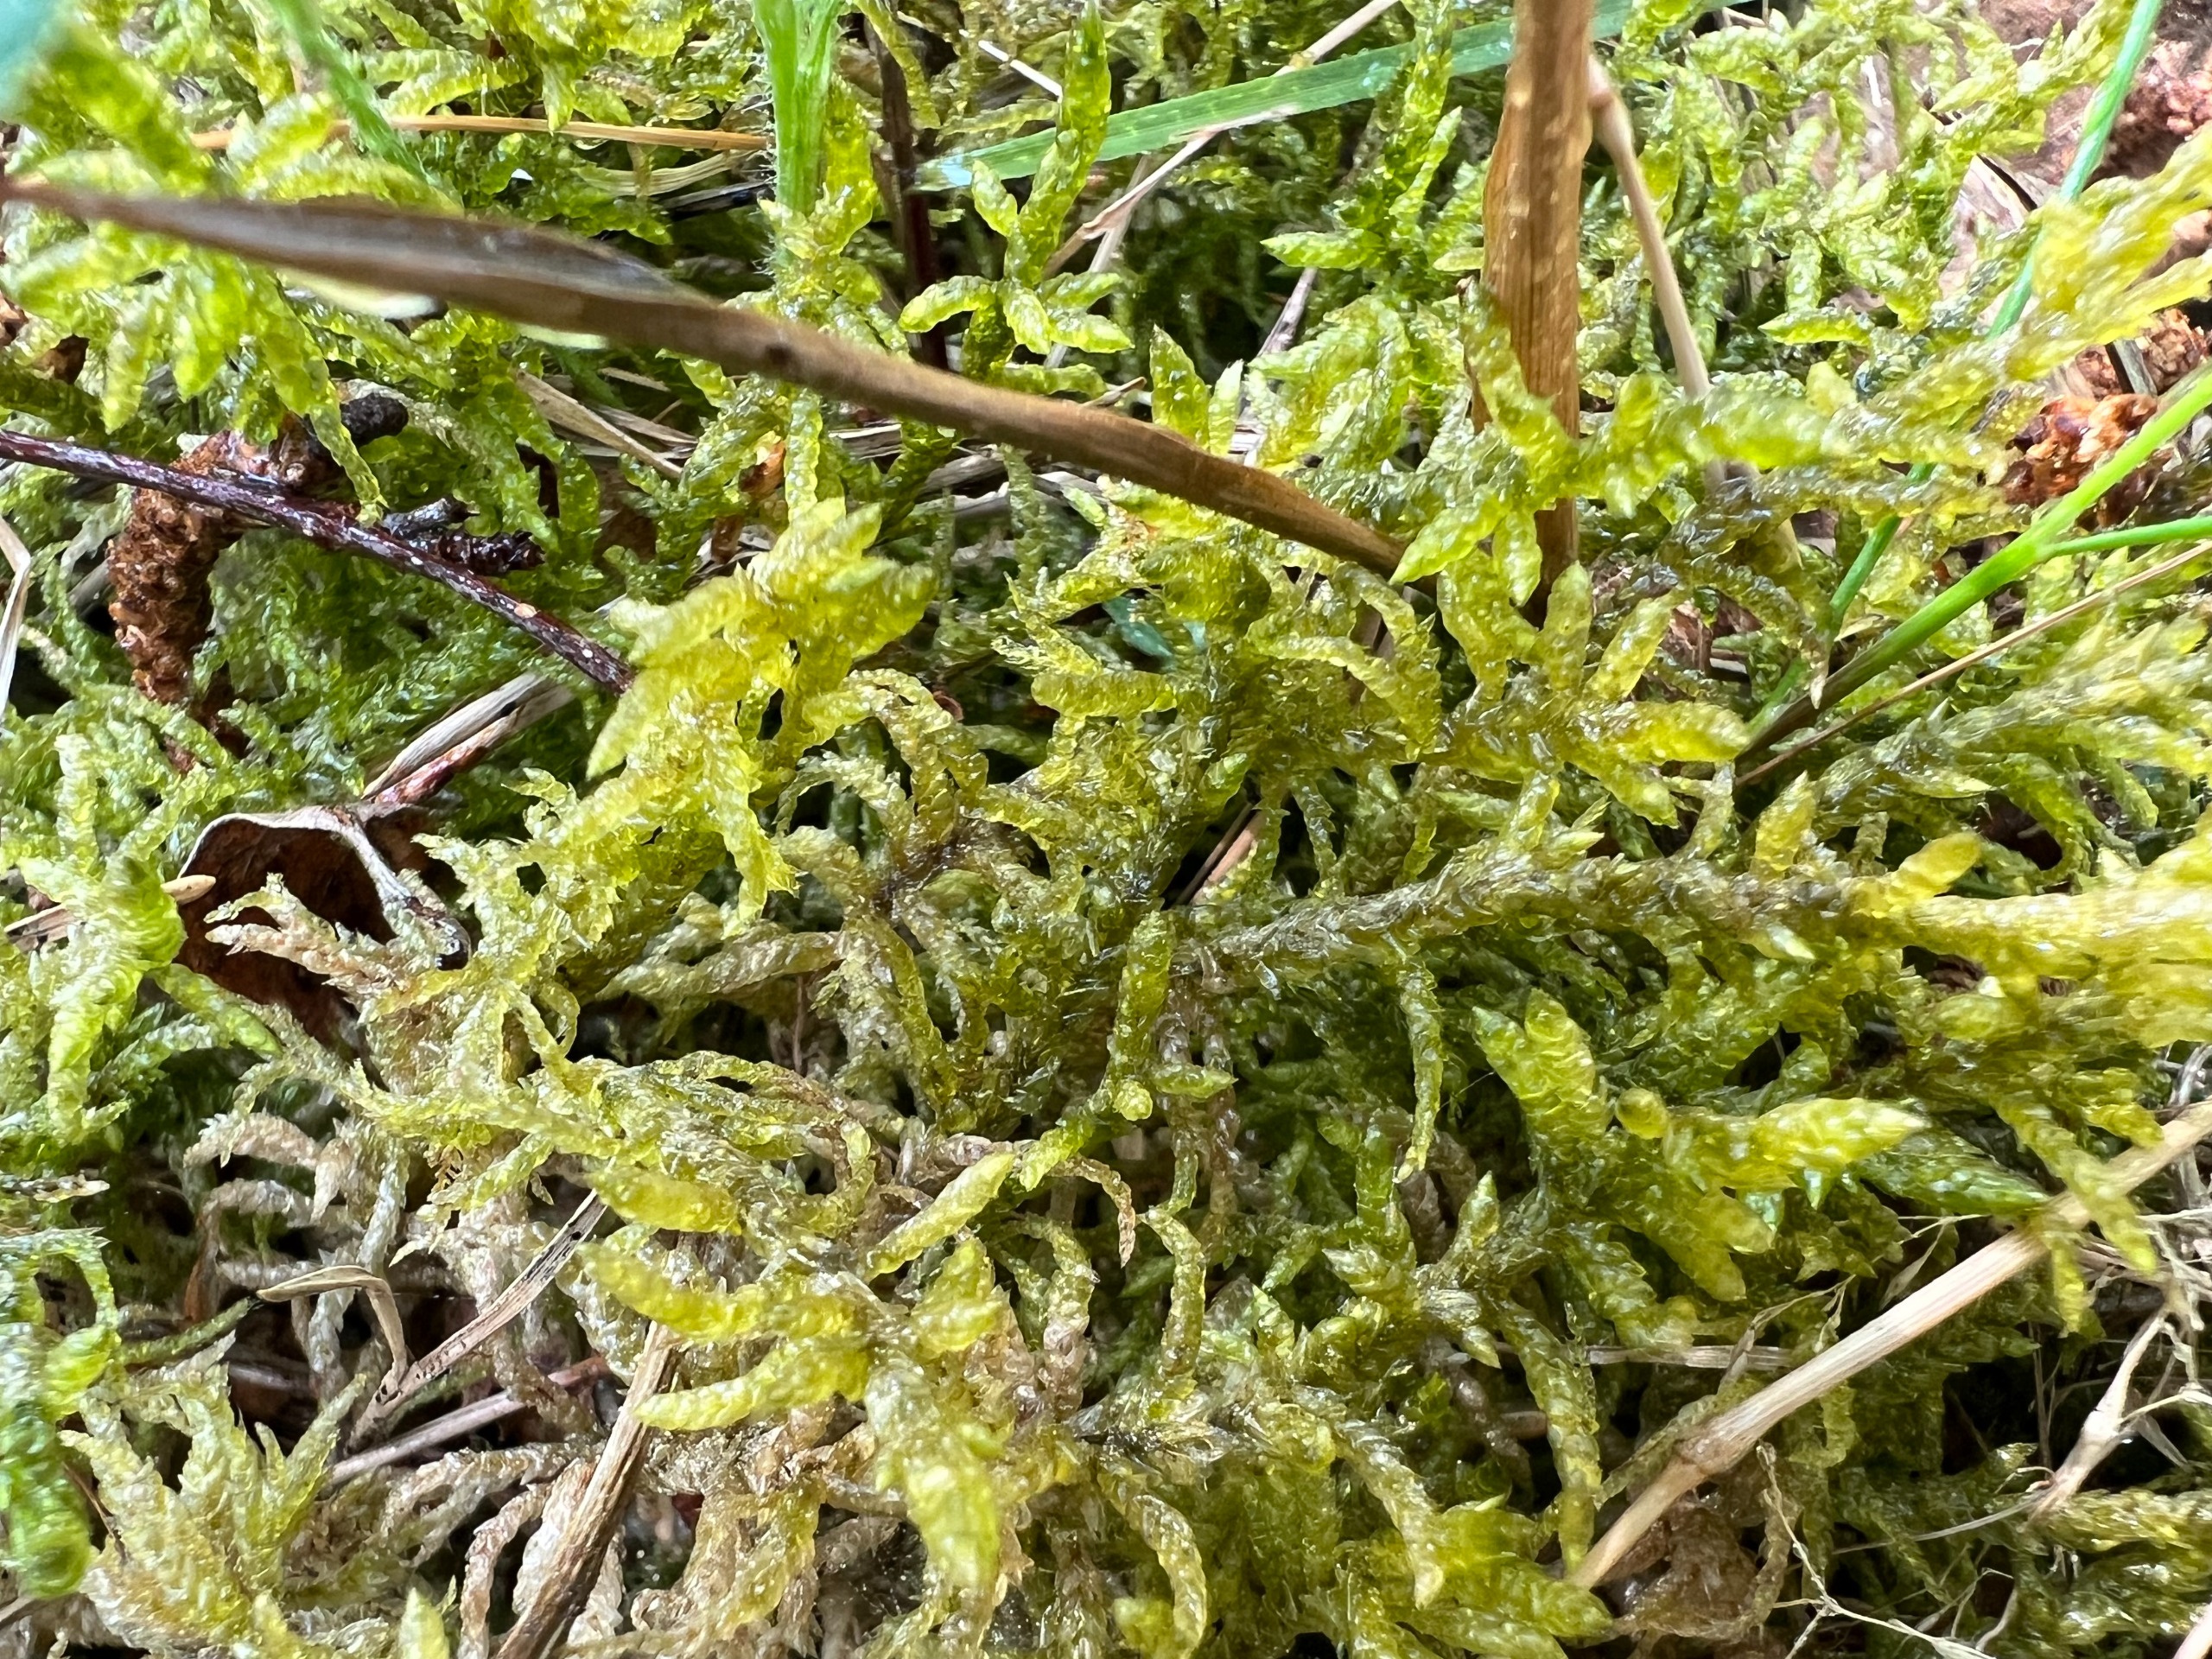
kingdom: Plantae
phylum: Bryophyta
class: Bryopsida
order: Hypnales
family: Brachytheciaceae
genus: Pseudoscleropodium
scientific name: Pseudoscleropodium purum
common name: Hulbladet fedtmos
